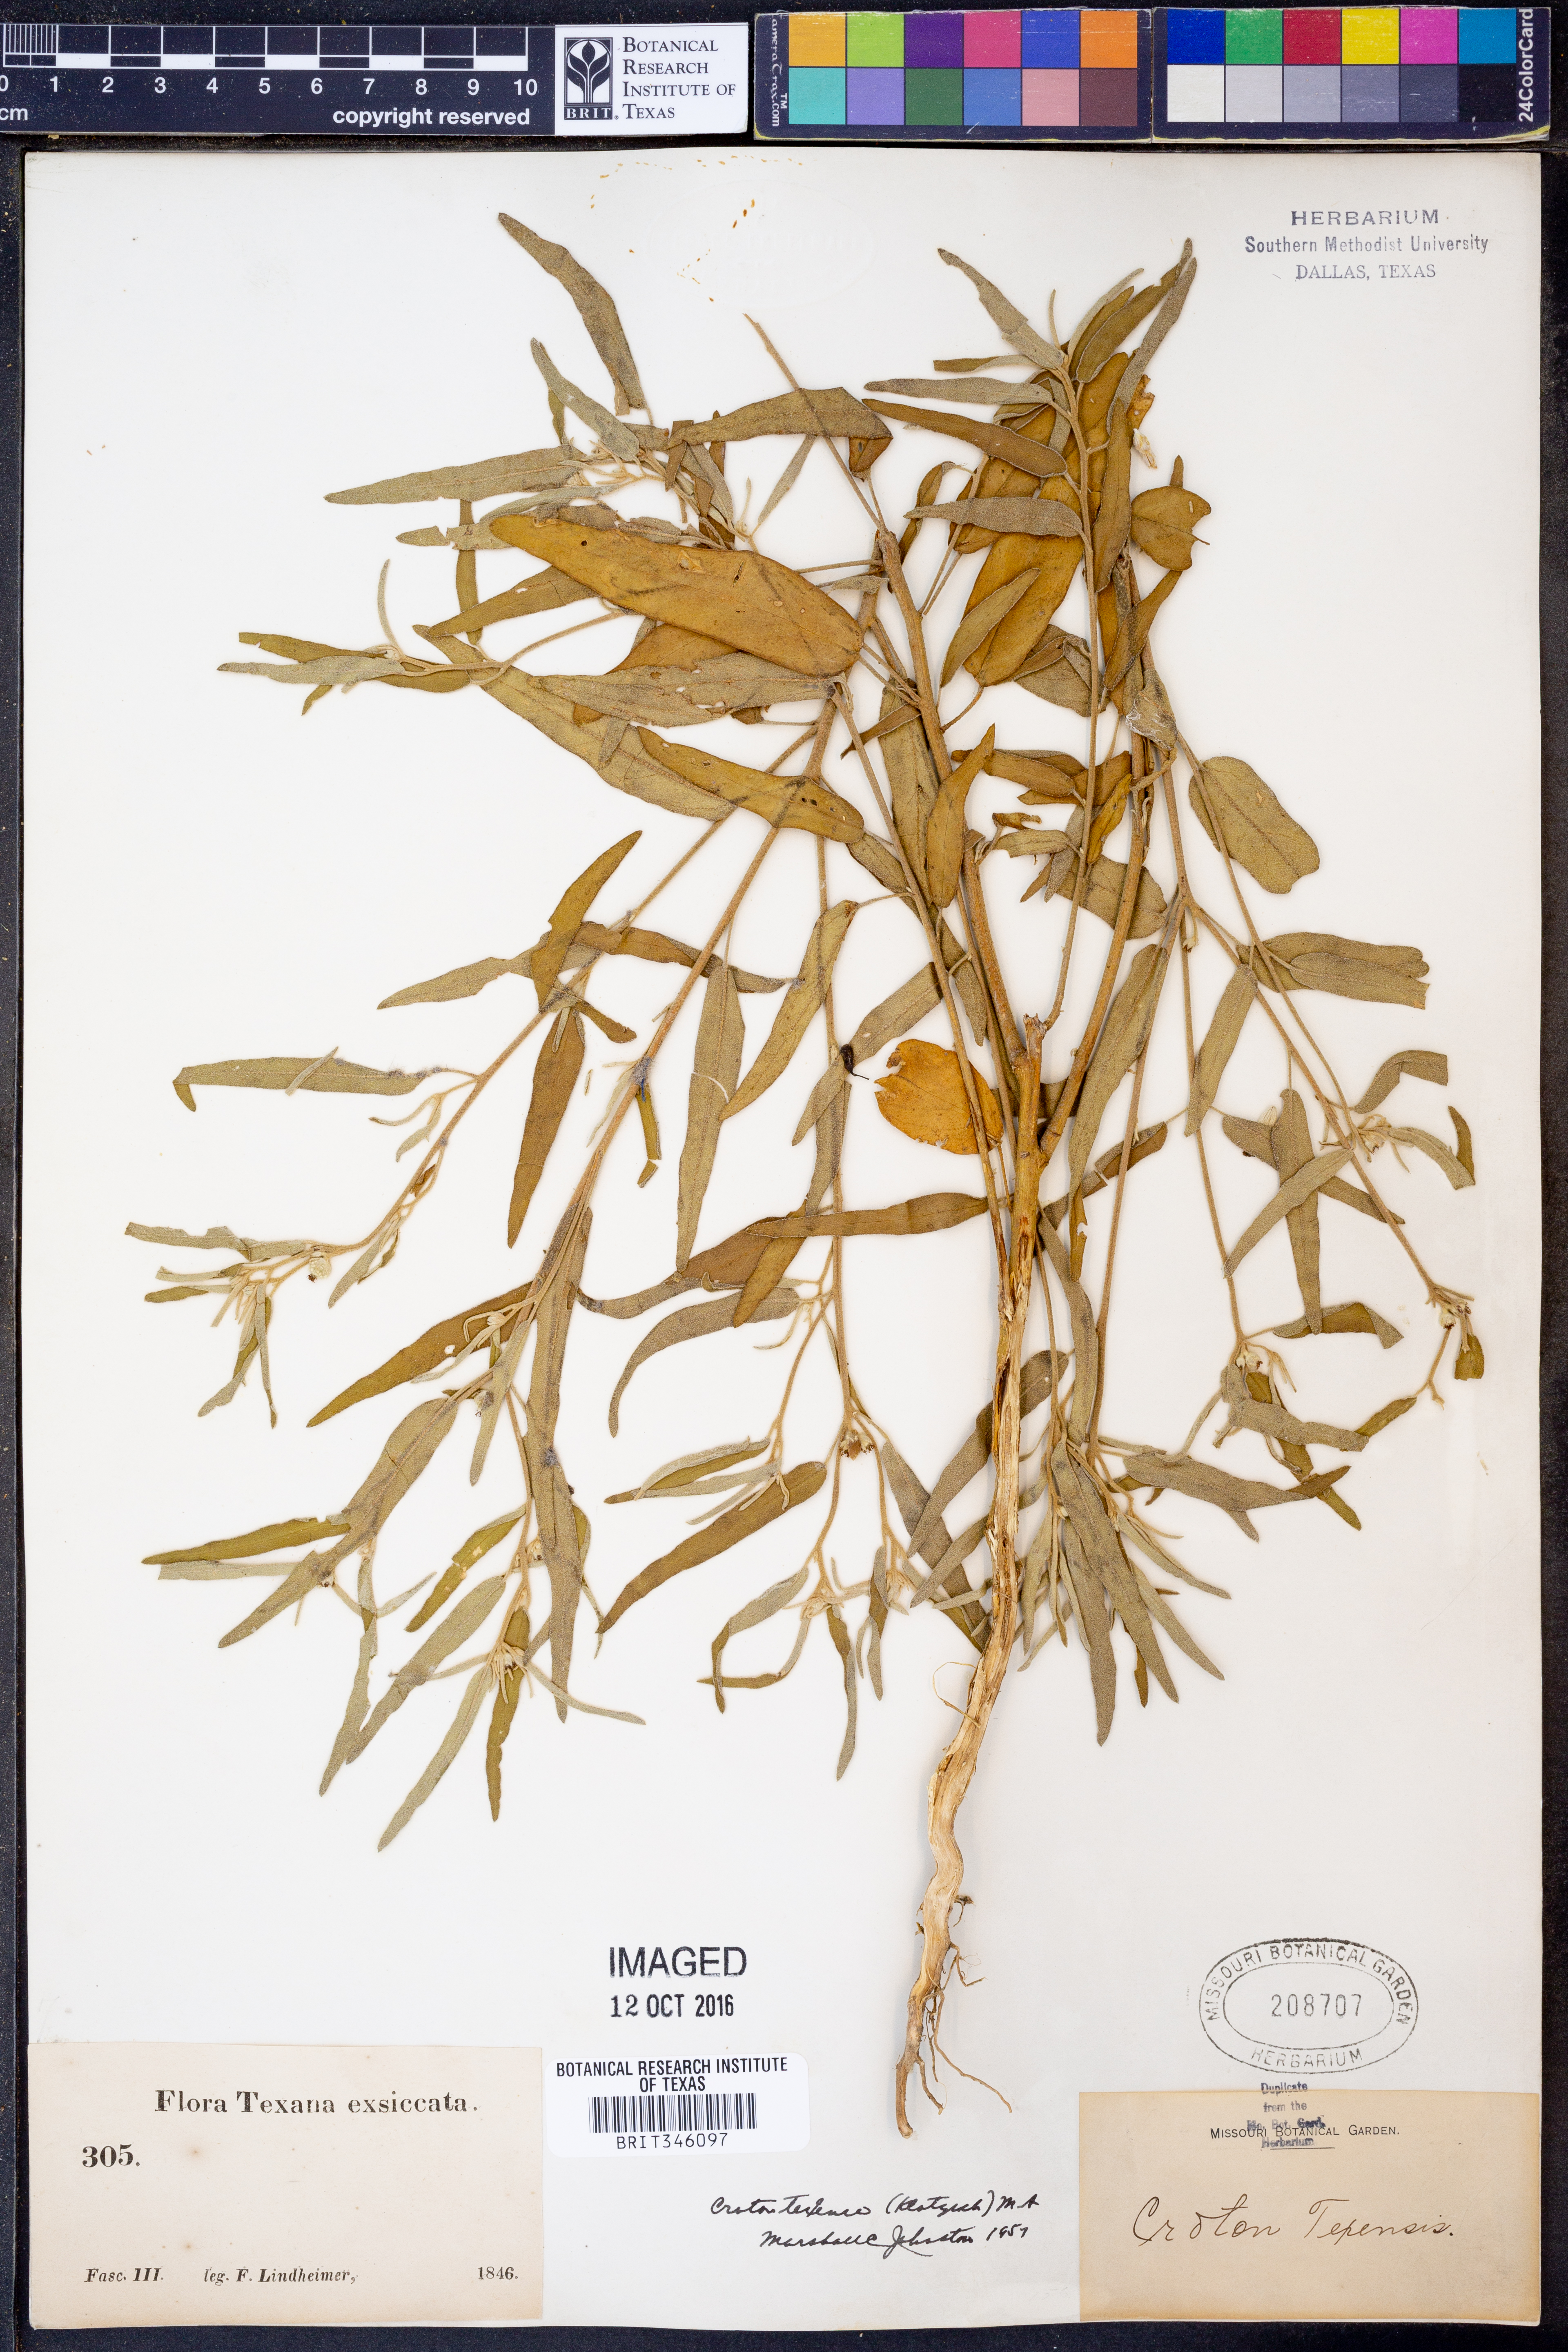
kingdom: Plantae
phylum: Tracheophyta
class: Magnoliopsida
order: Malpighiales
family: Euphorbiaceae
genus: Croton
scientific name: Croton texensis
